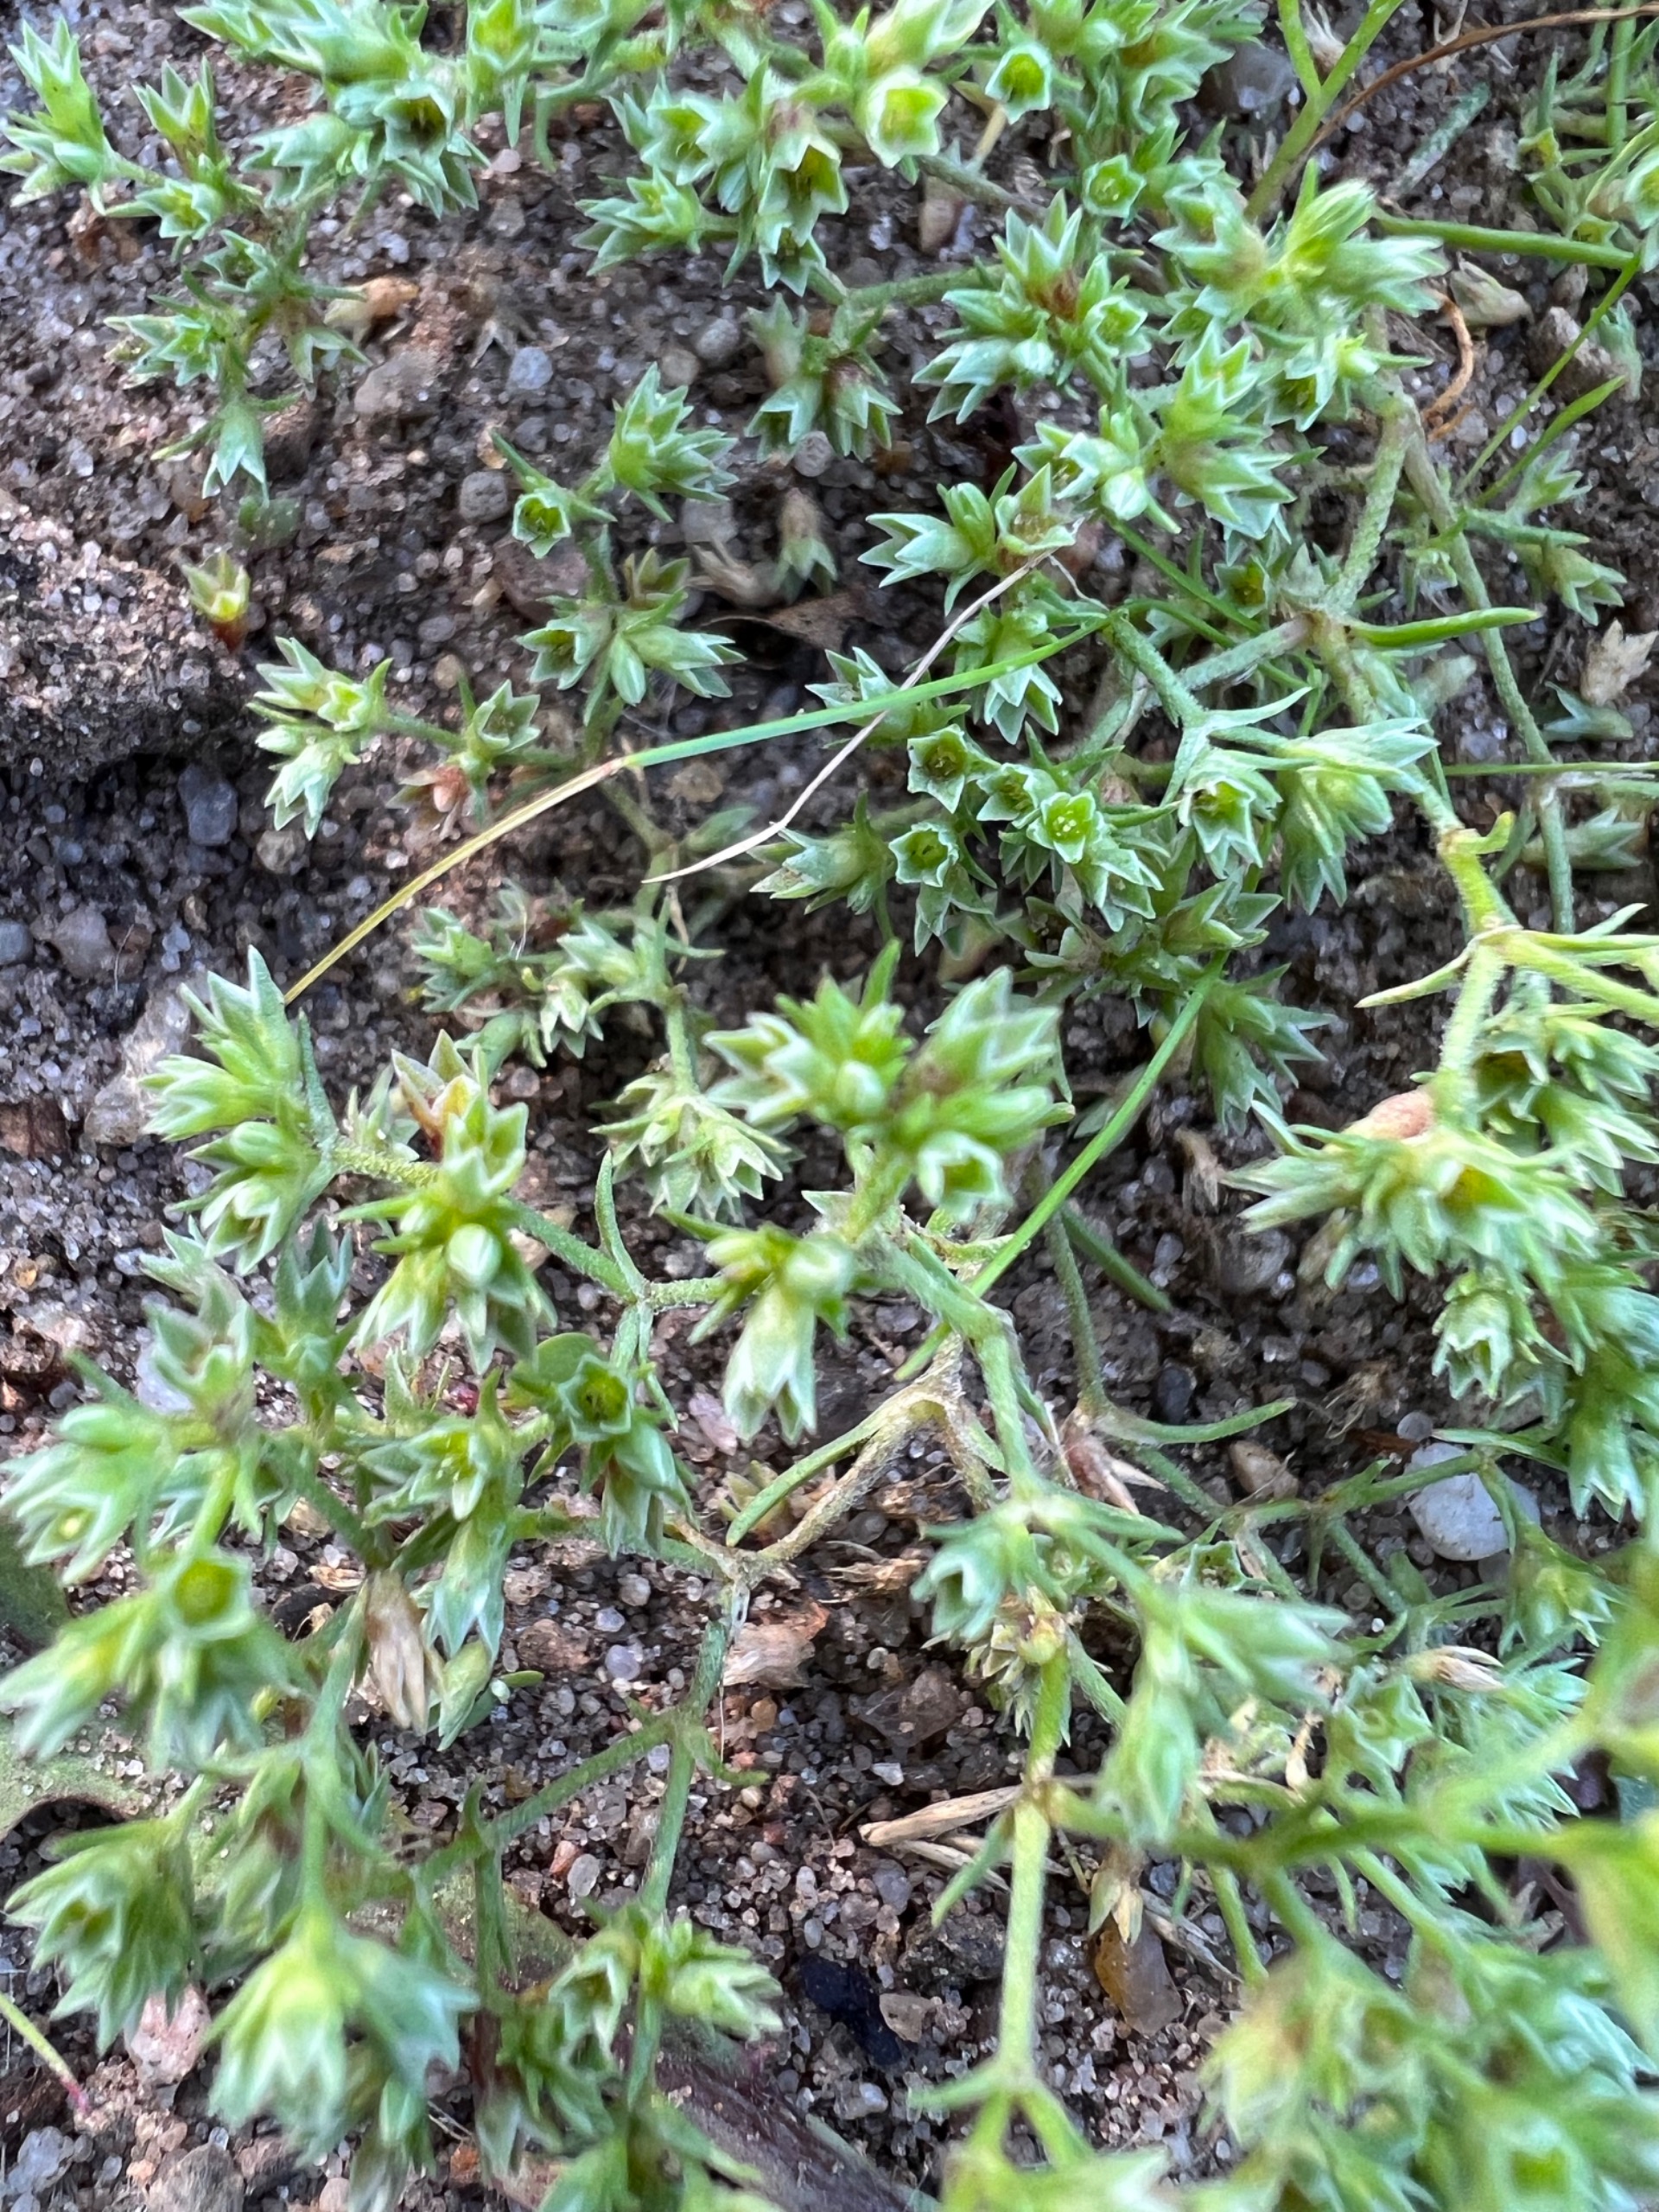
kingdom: Plantae
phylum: Tracheophyta
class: Magnoliopsida
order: Caryophyllales
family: Caryophyllaceae
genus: Scleranthus
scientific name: Scleranthus annuus
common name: Enårig knavel
